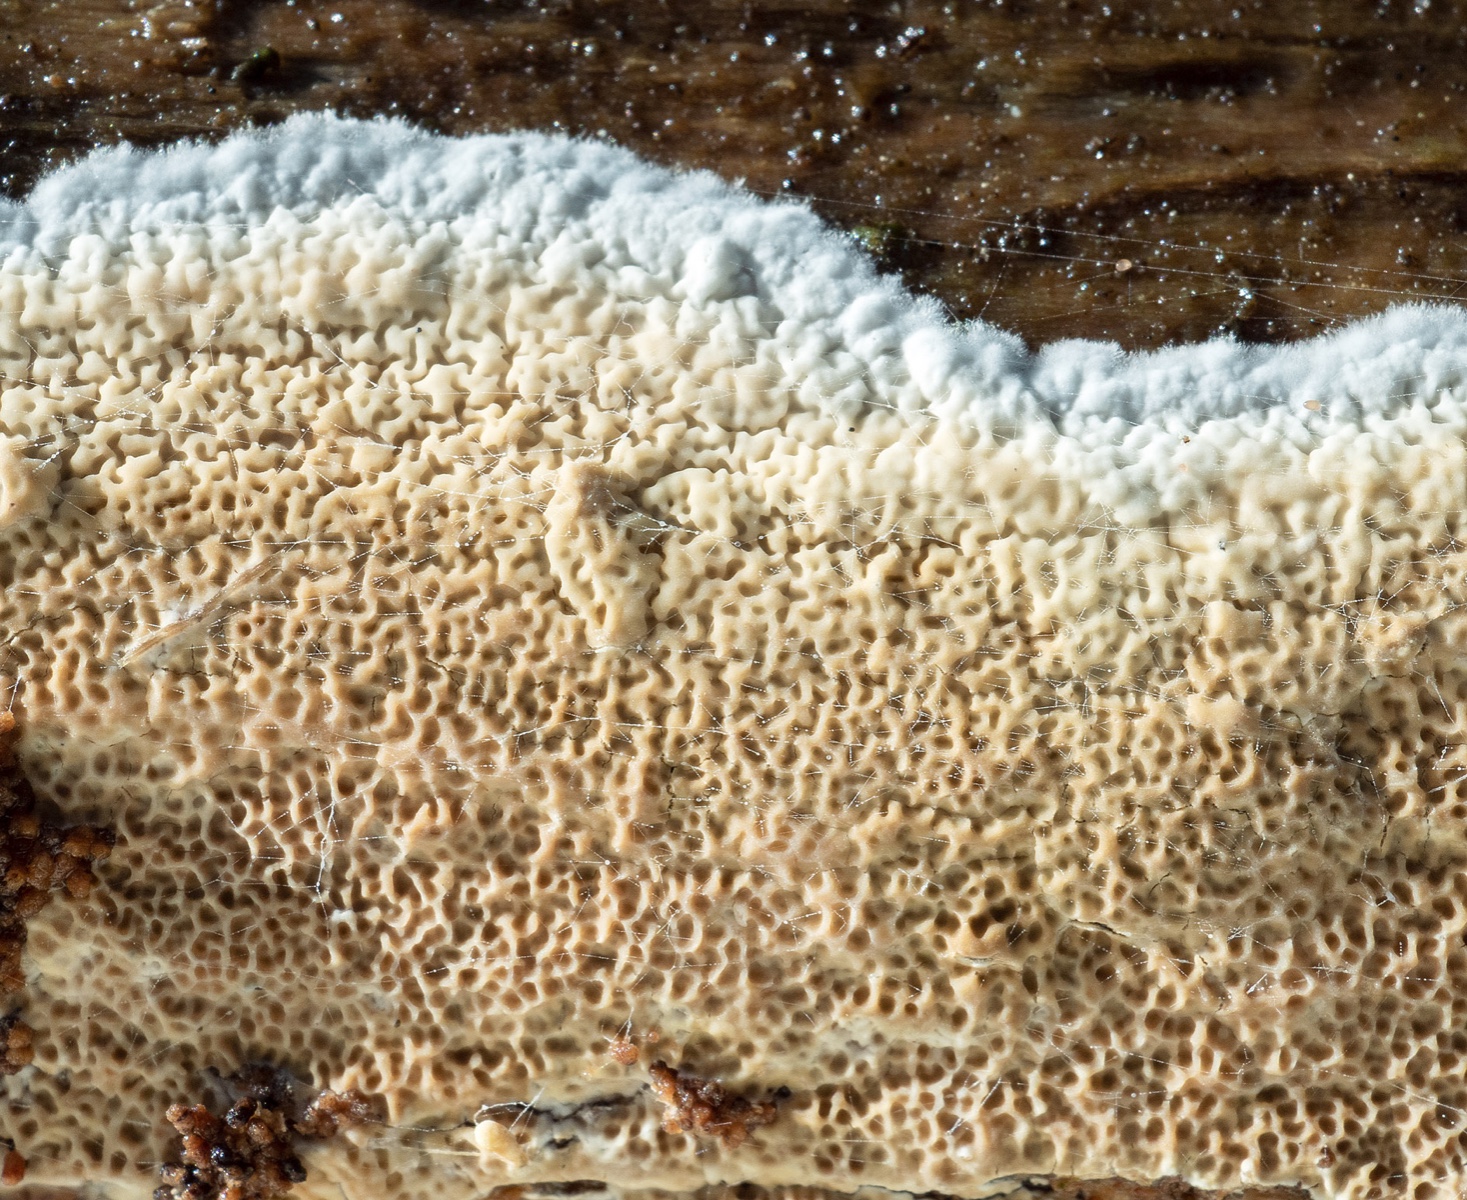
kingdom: Fungi
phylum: Basidiomycota
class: Agaricomycetes
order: Polyporales
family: Irpicaceae
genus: Crystallicutis
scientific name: Crystallicutis serpens
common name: gråviolet barkhinde
